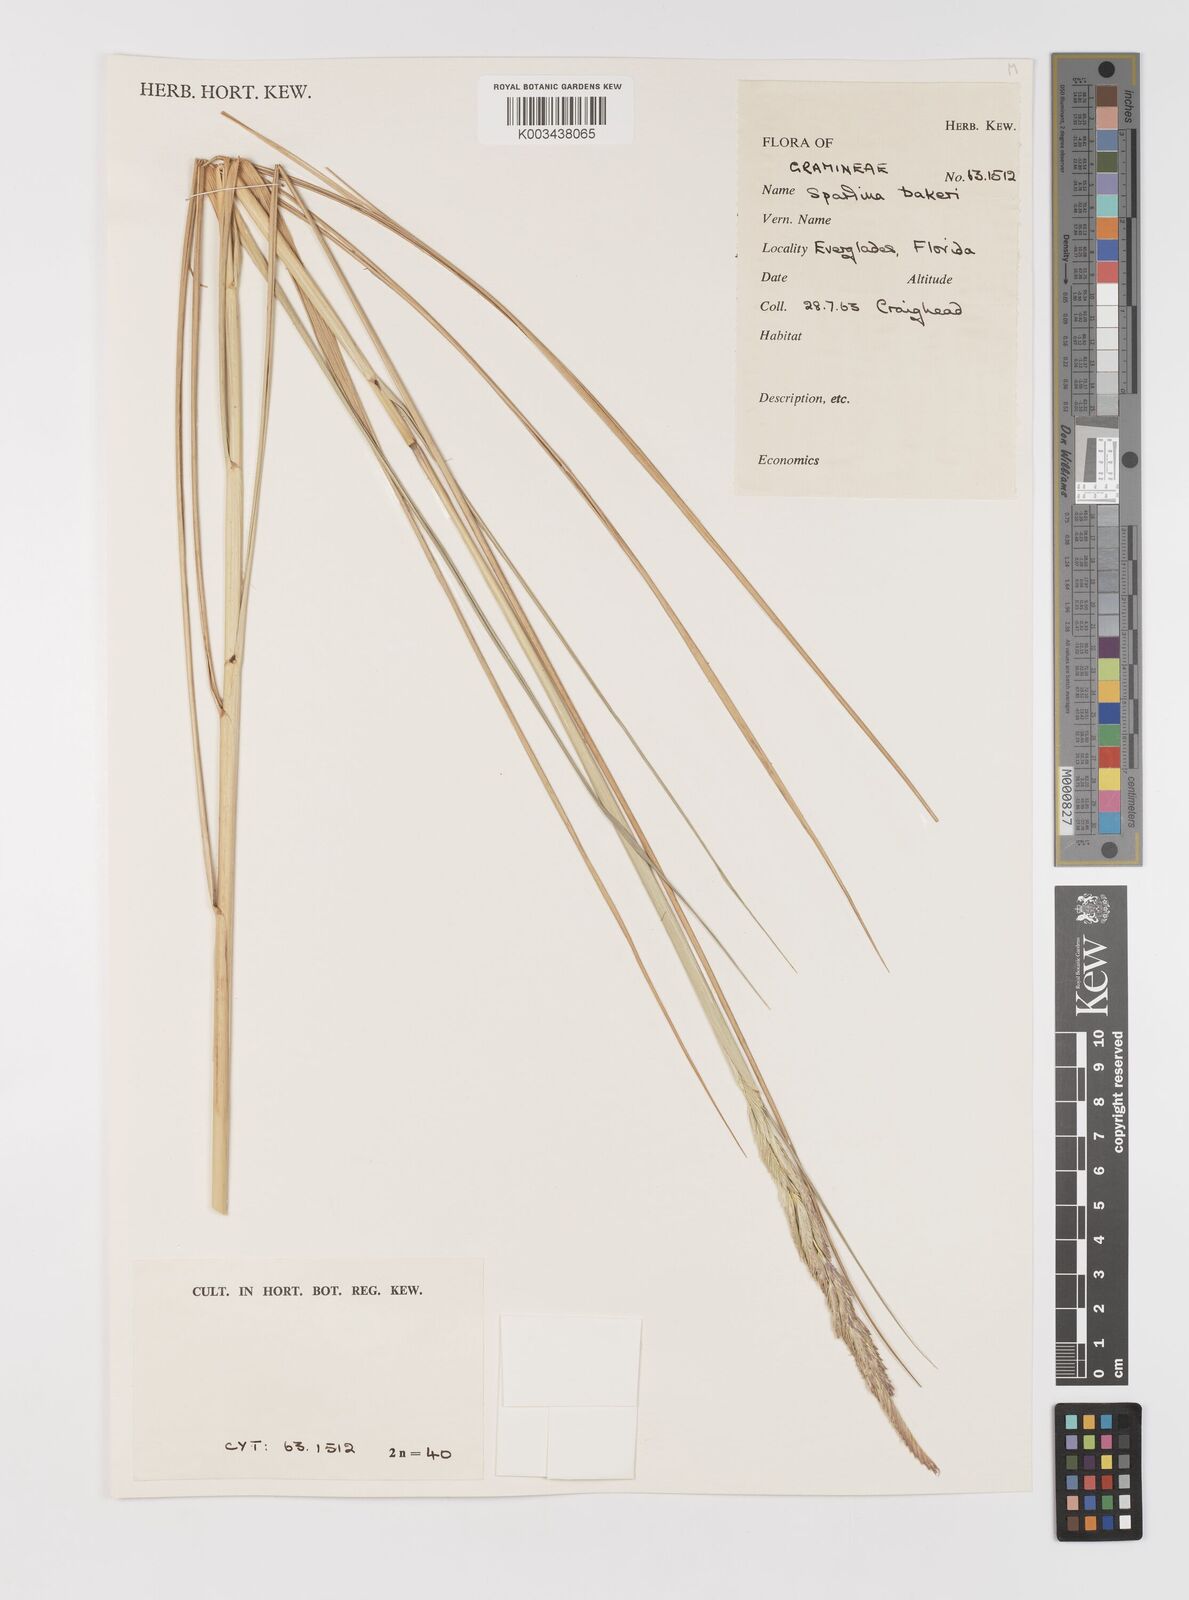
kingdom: Plantae
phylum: Tracheophyta
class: Liliopsida
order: Poales
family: Poaceae
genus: Sporobolus
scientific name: Sporobolus bakeri
